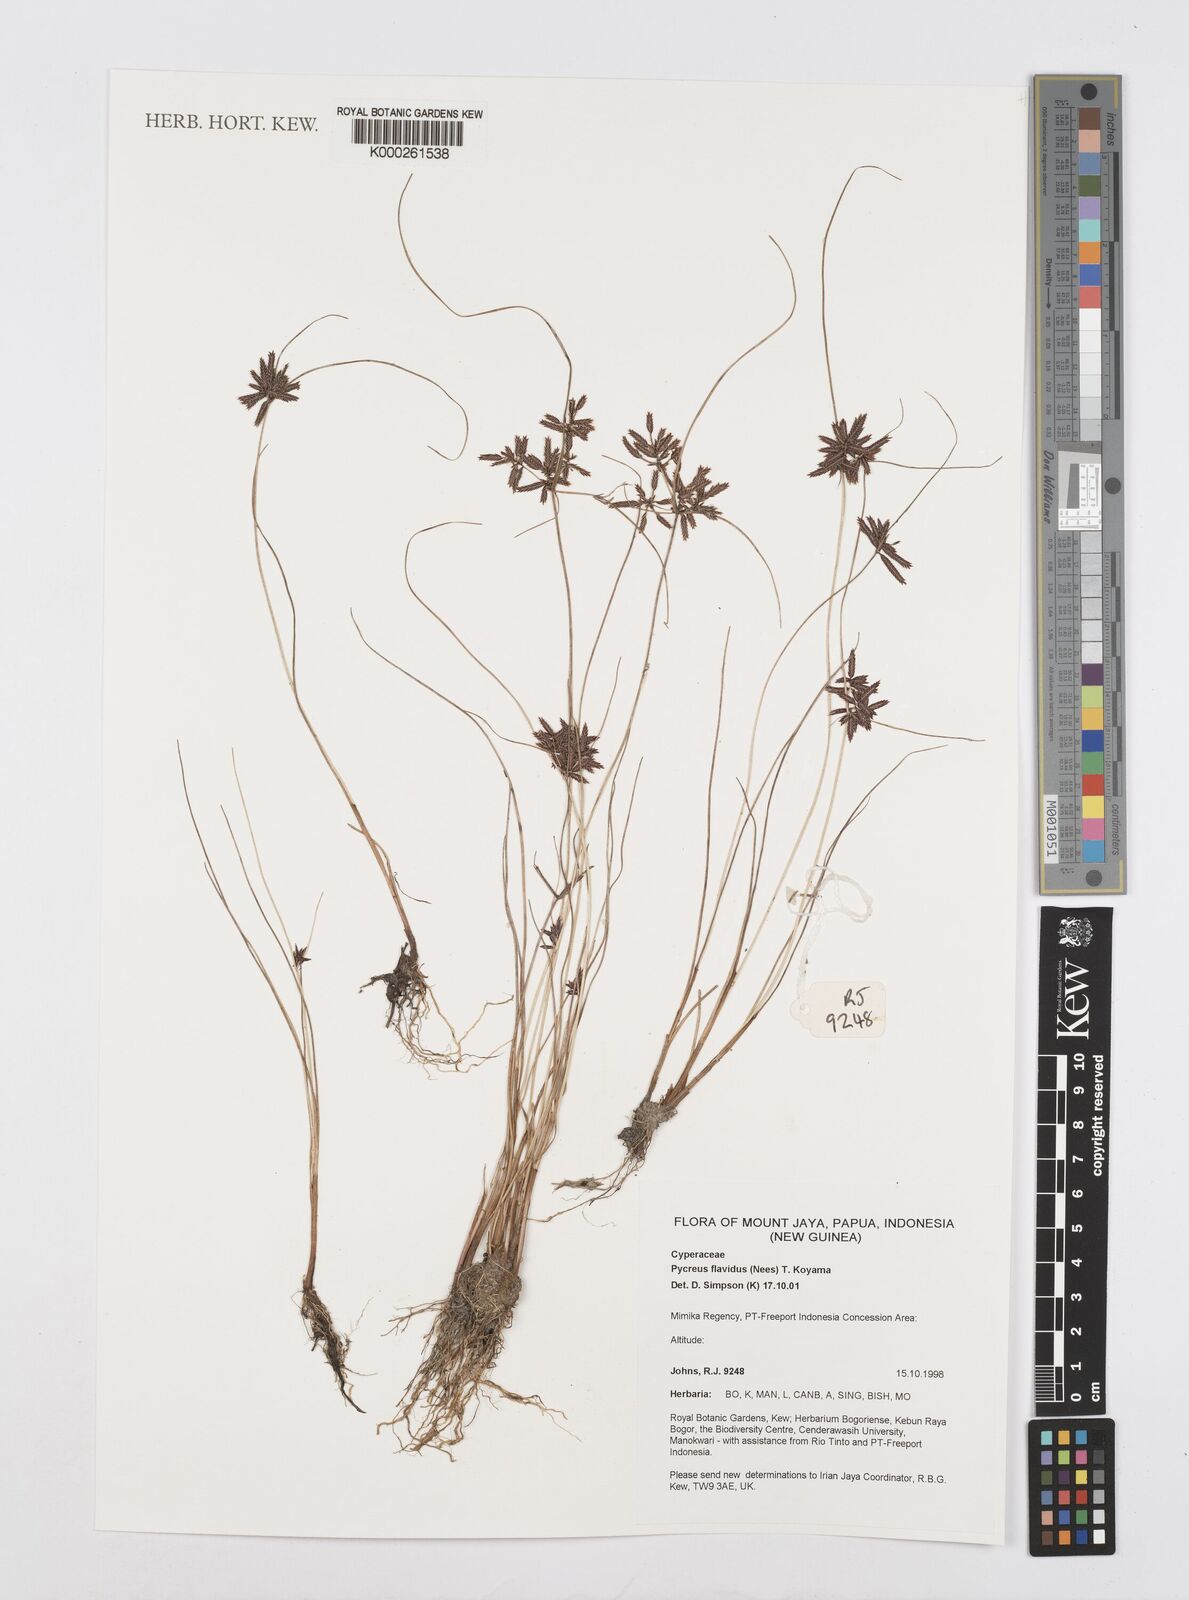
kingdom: Plantae
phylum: Tracheophyta
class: Liliopsida
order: Poales
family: Cyperaceae
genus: Cyperus
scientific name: Cyperus
